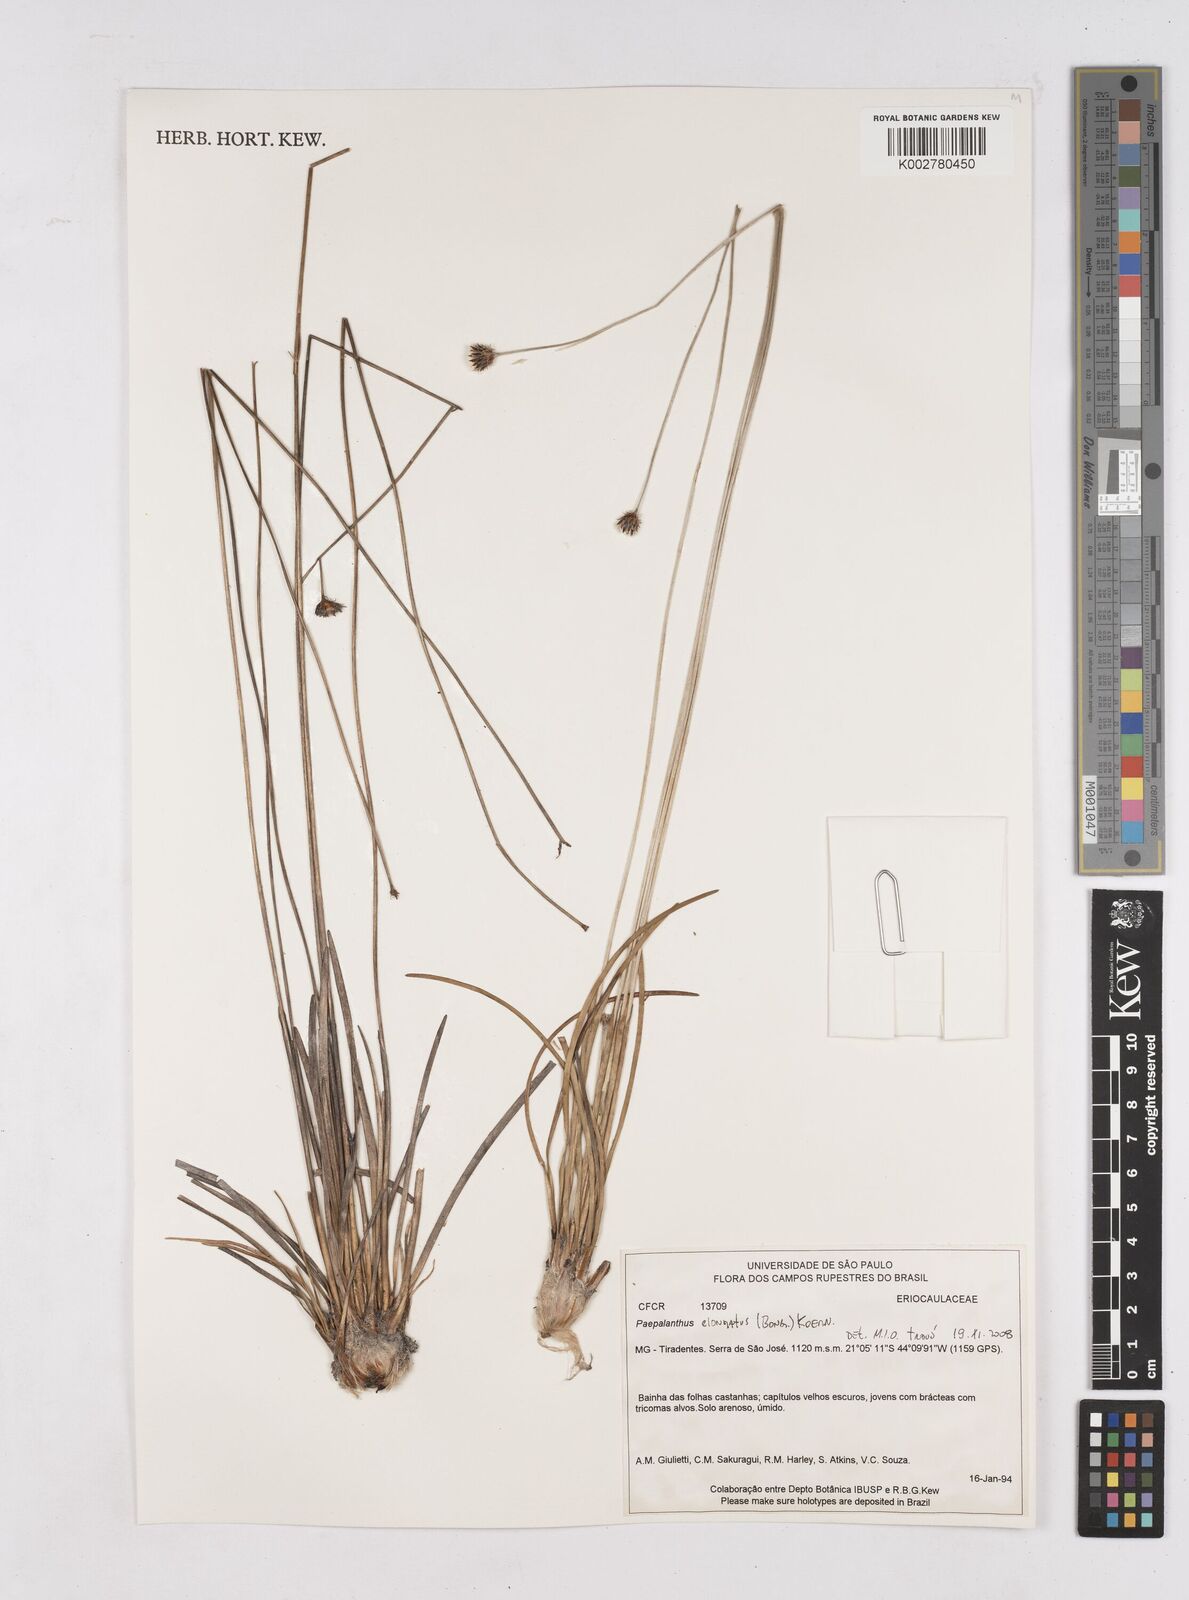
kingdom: Plantae
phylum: Tracheophyta
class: Liliopsida
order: Poales
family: Eriocaulaceae
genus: Paepalanthus
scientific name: Paepalanthus elongatus
